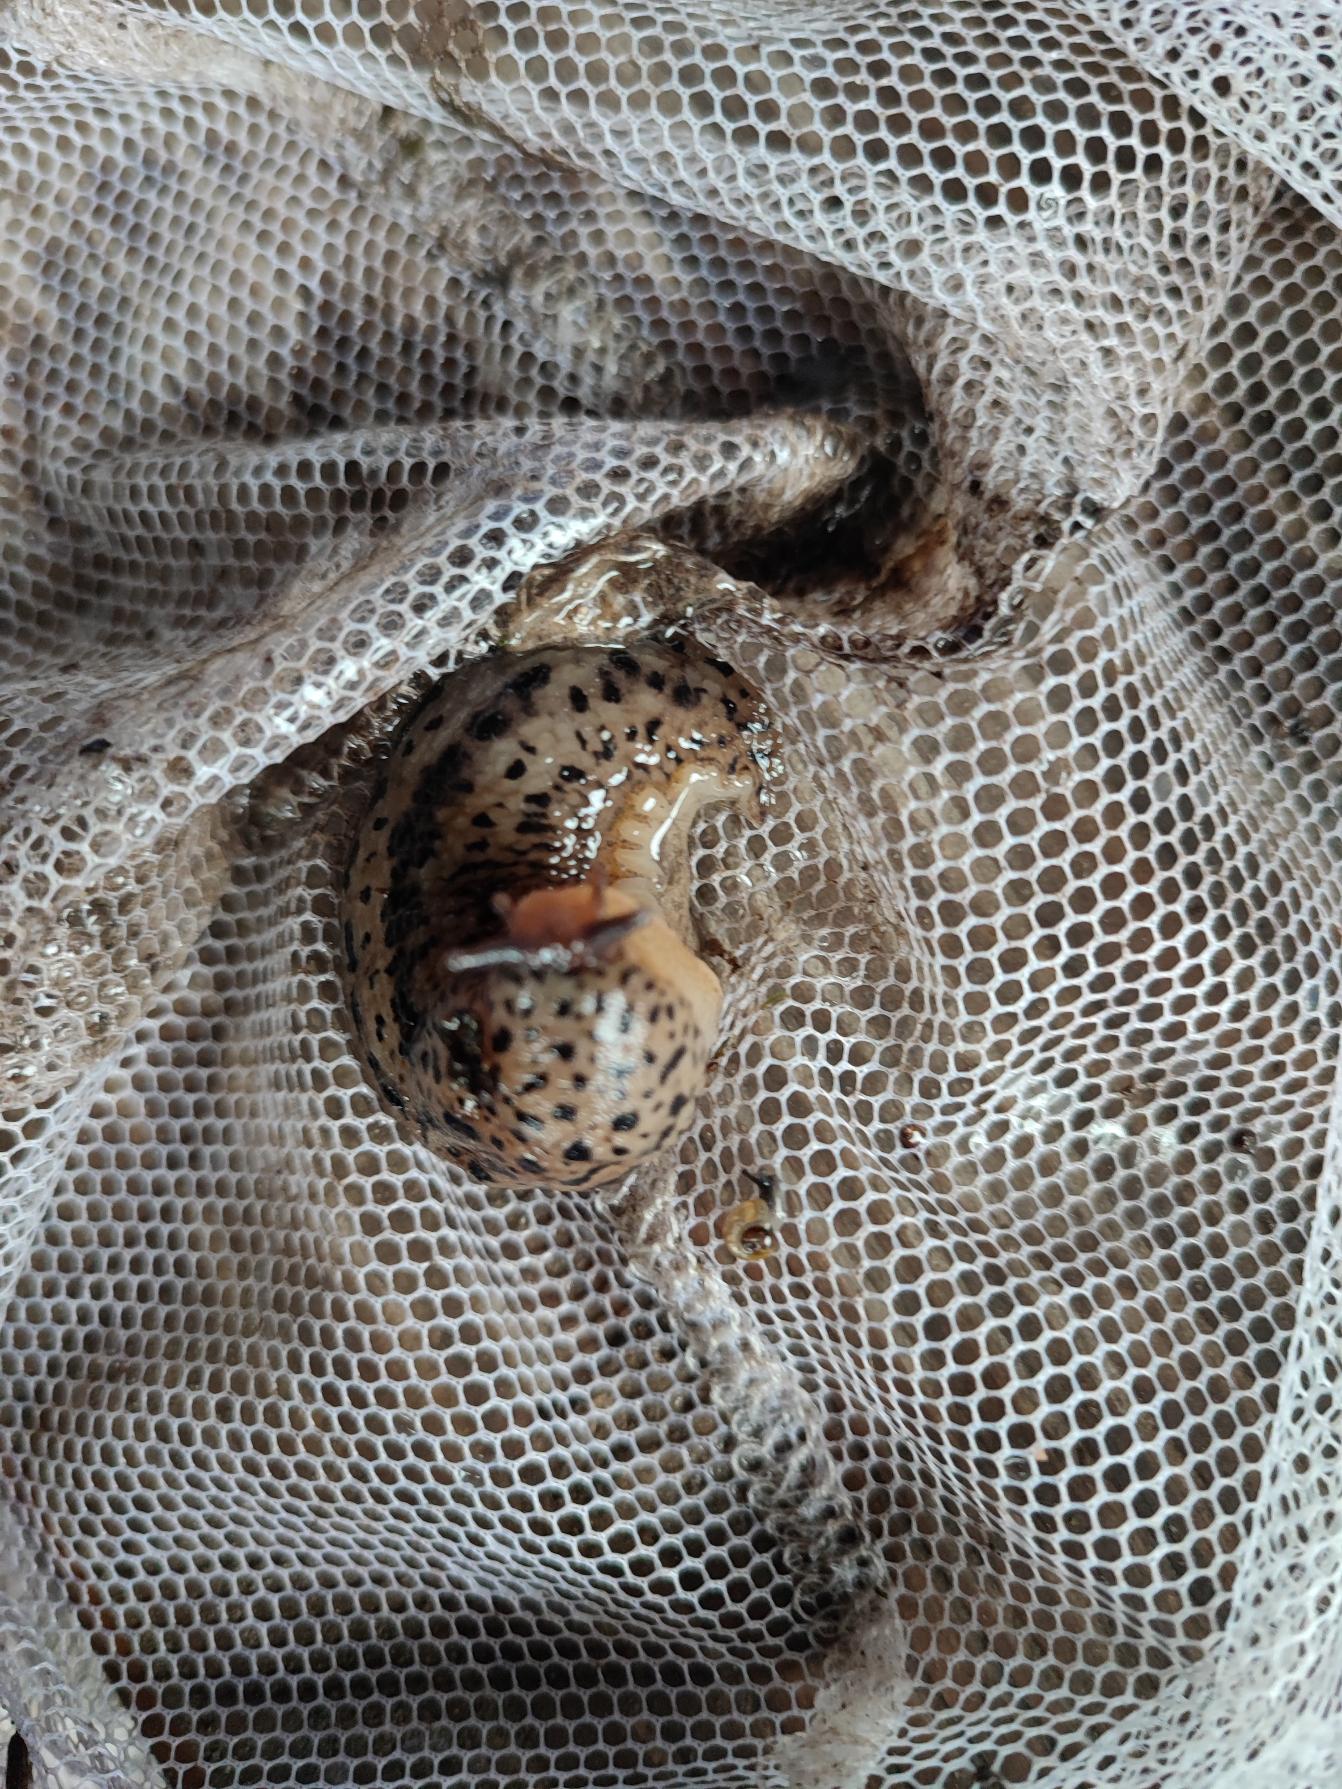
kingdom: Animalia
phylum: Mollusca
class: Gastropoda
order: Stylommatophora
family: Limacidae
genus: Limax
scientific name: Limax maximus
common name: Pantersnegl
